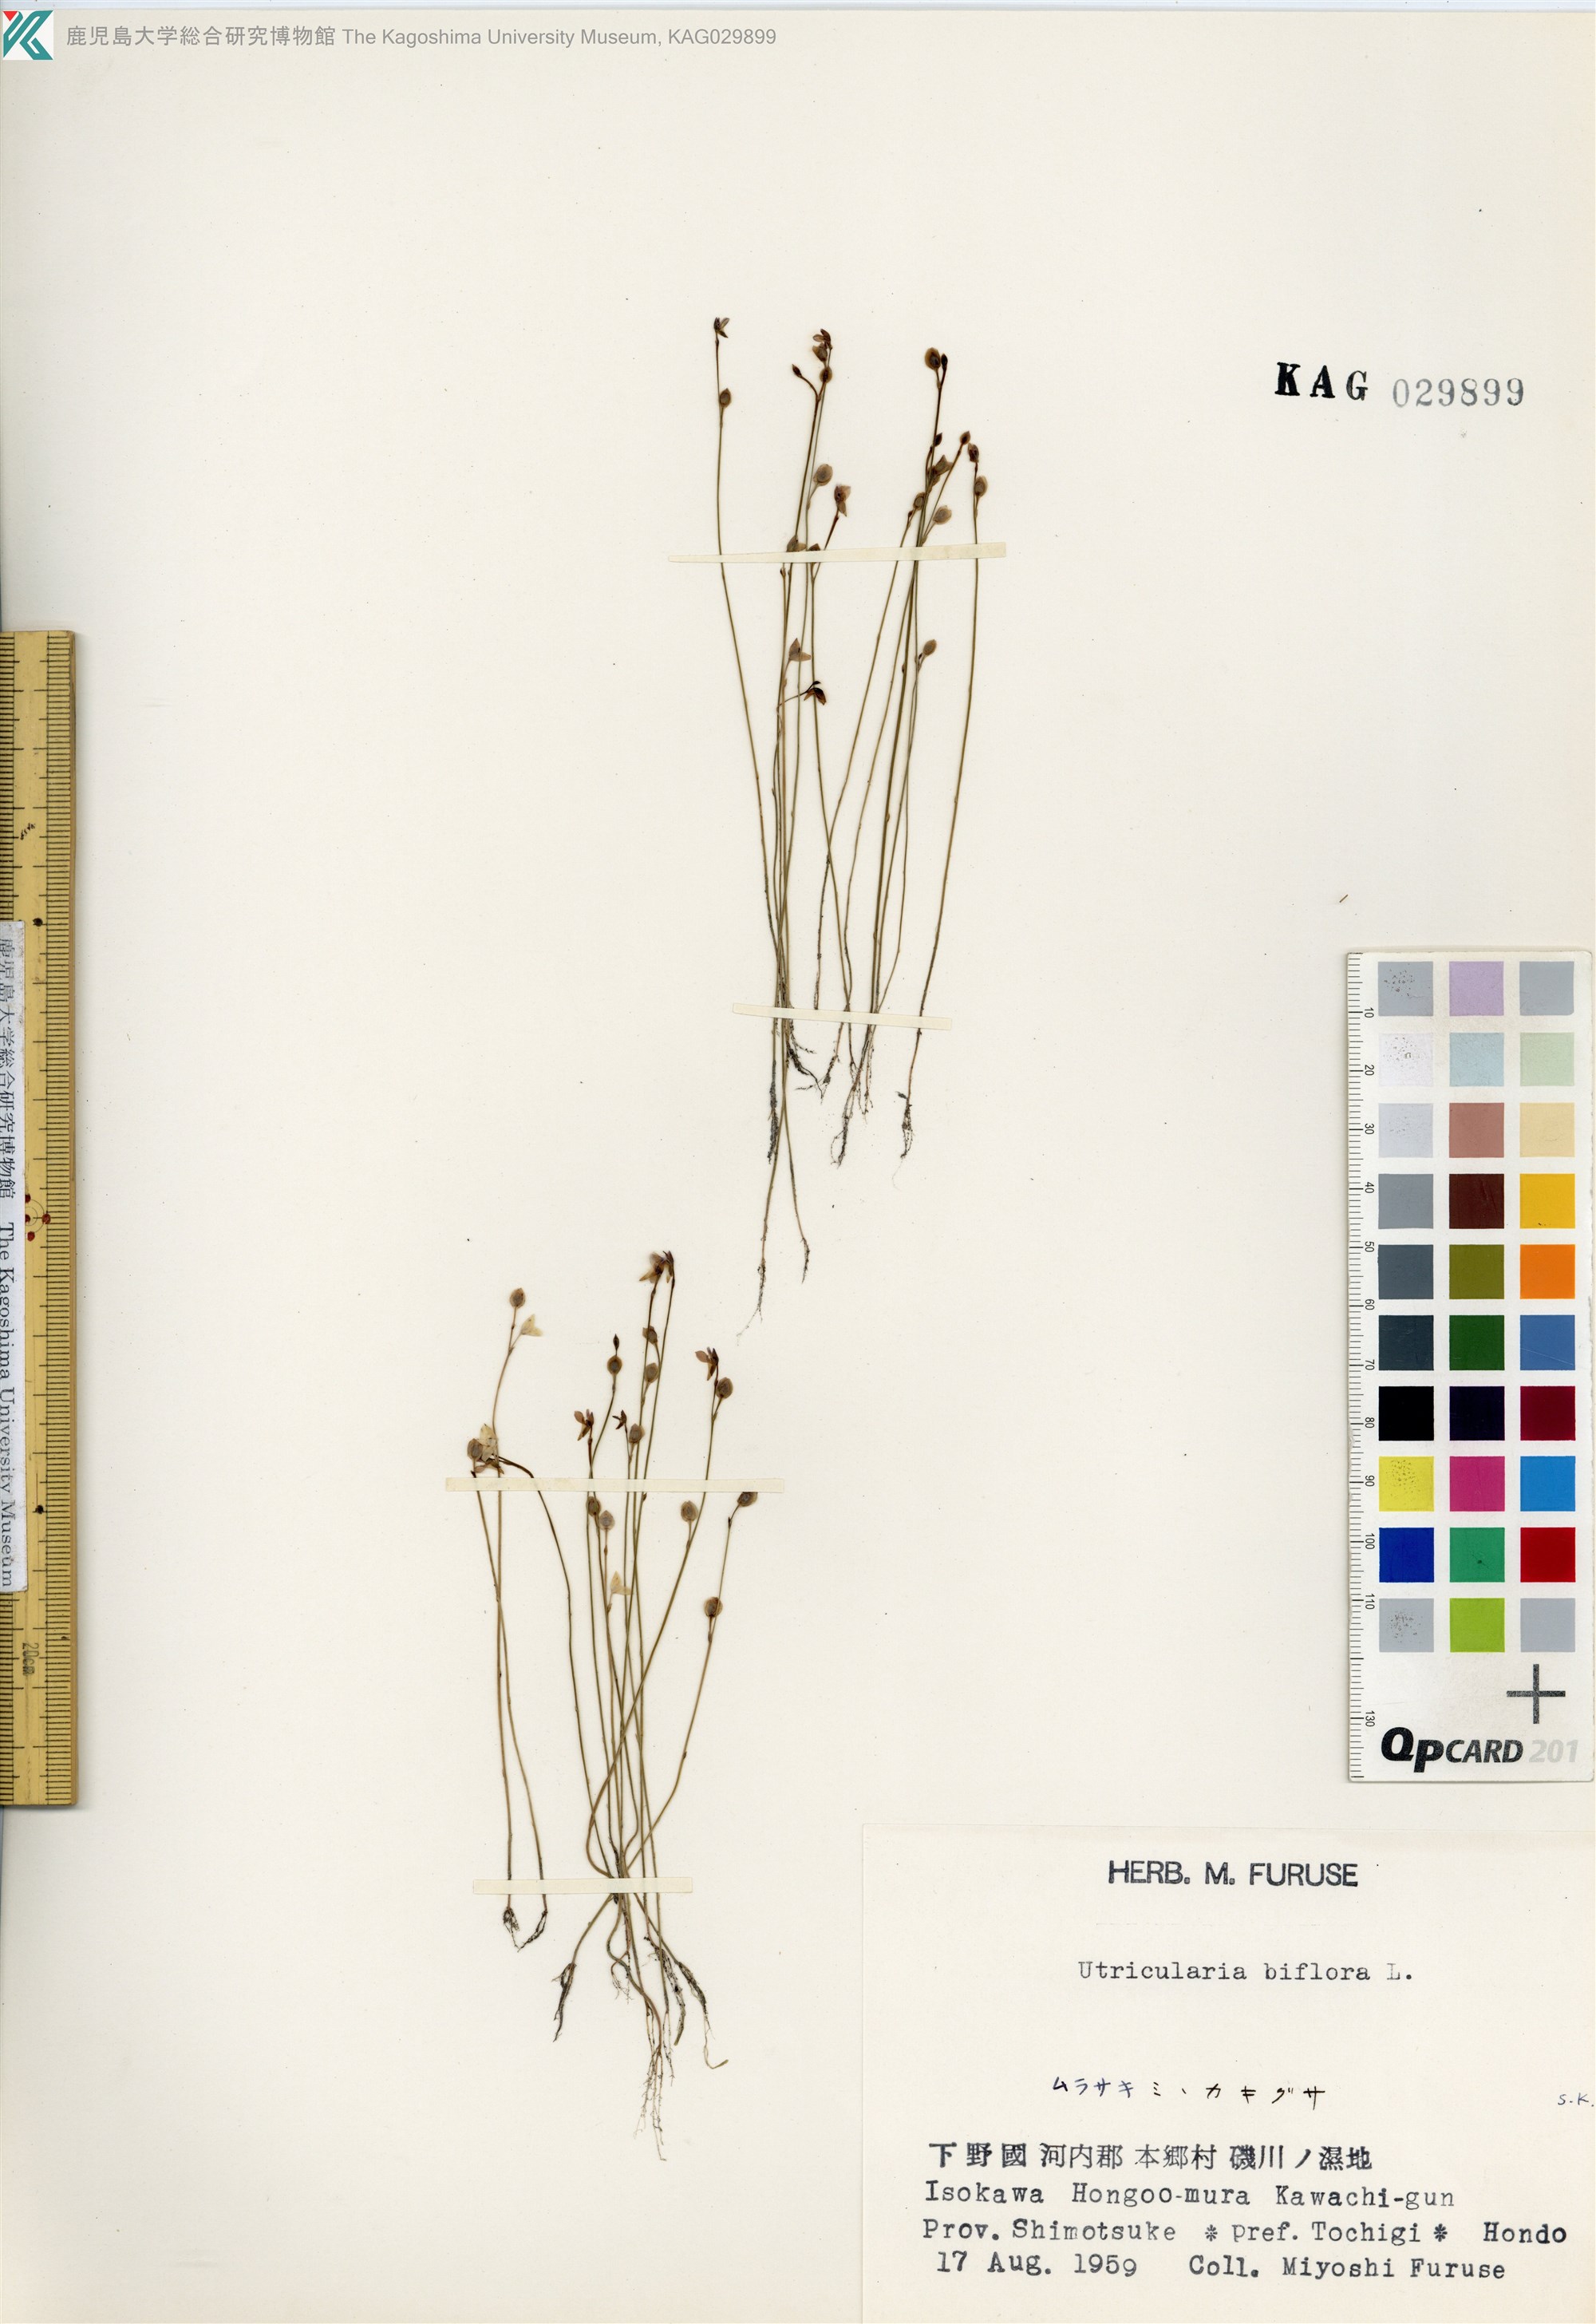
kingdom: Plantae
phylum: Tracheophyta
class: Magnoliopsida
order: Lamiales
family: Lentibulariaceae
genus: Utricularia
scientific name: Utricularia uliginosa
